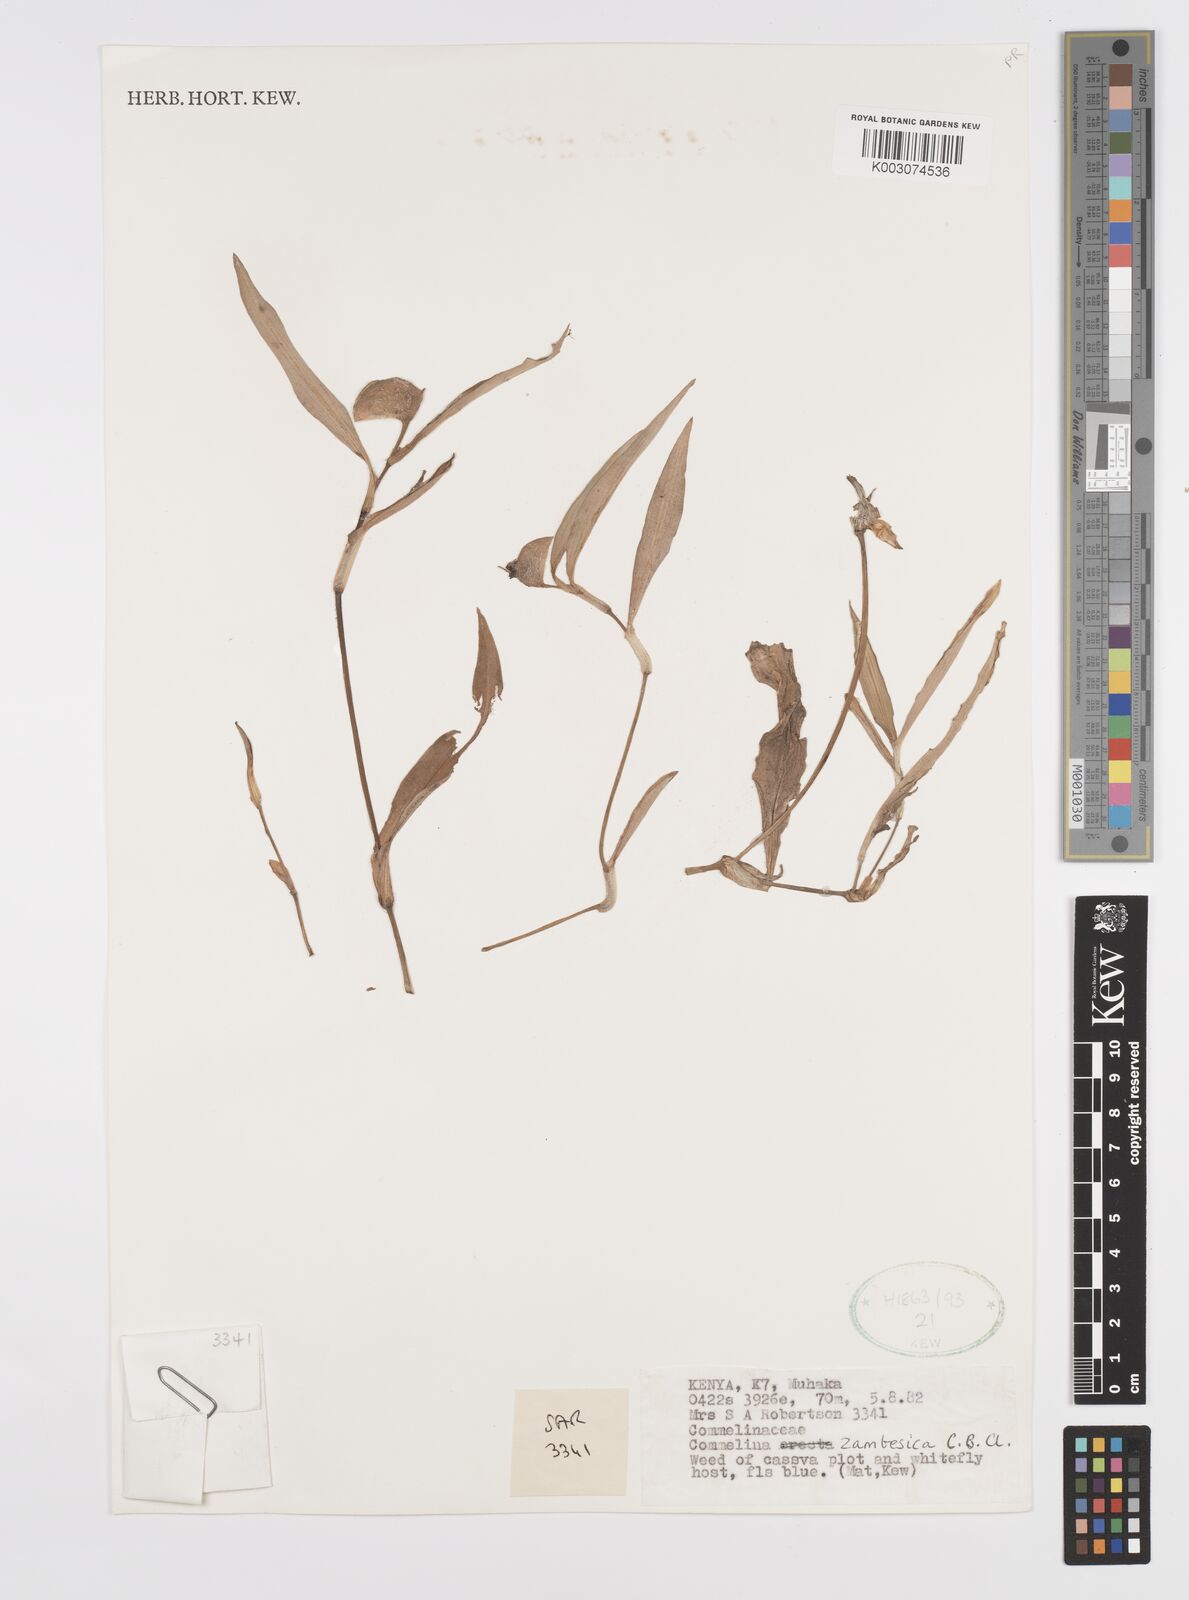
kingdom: Plantae
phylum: Tracheophyta
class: Liliopsida
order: Commelinales
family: Commelinaceae
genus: Commelina
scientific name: Commelina zambesica
